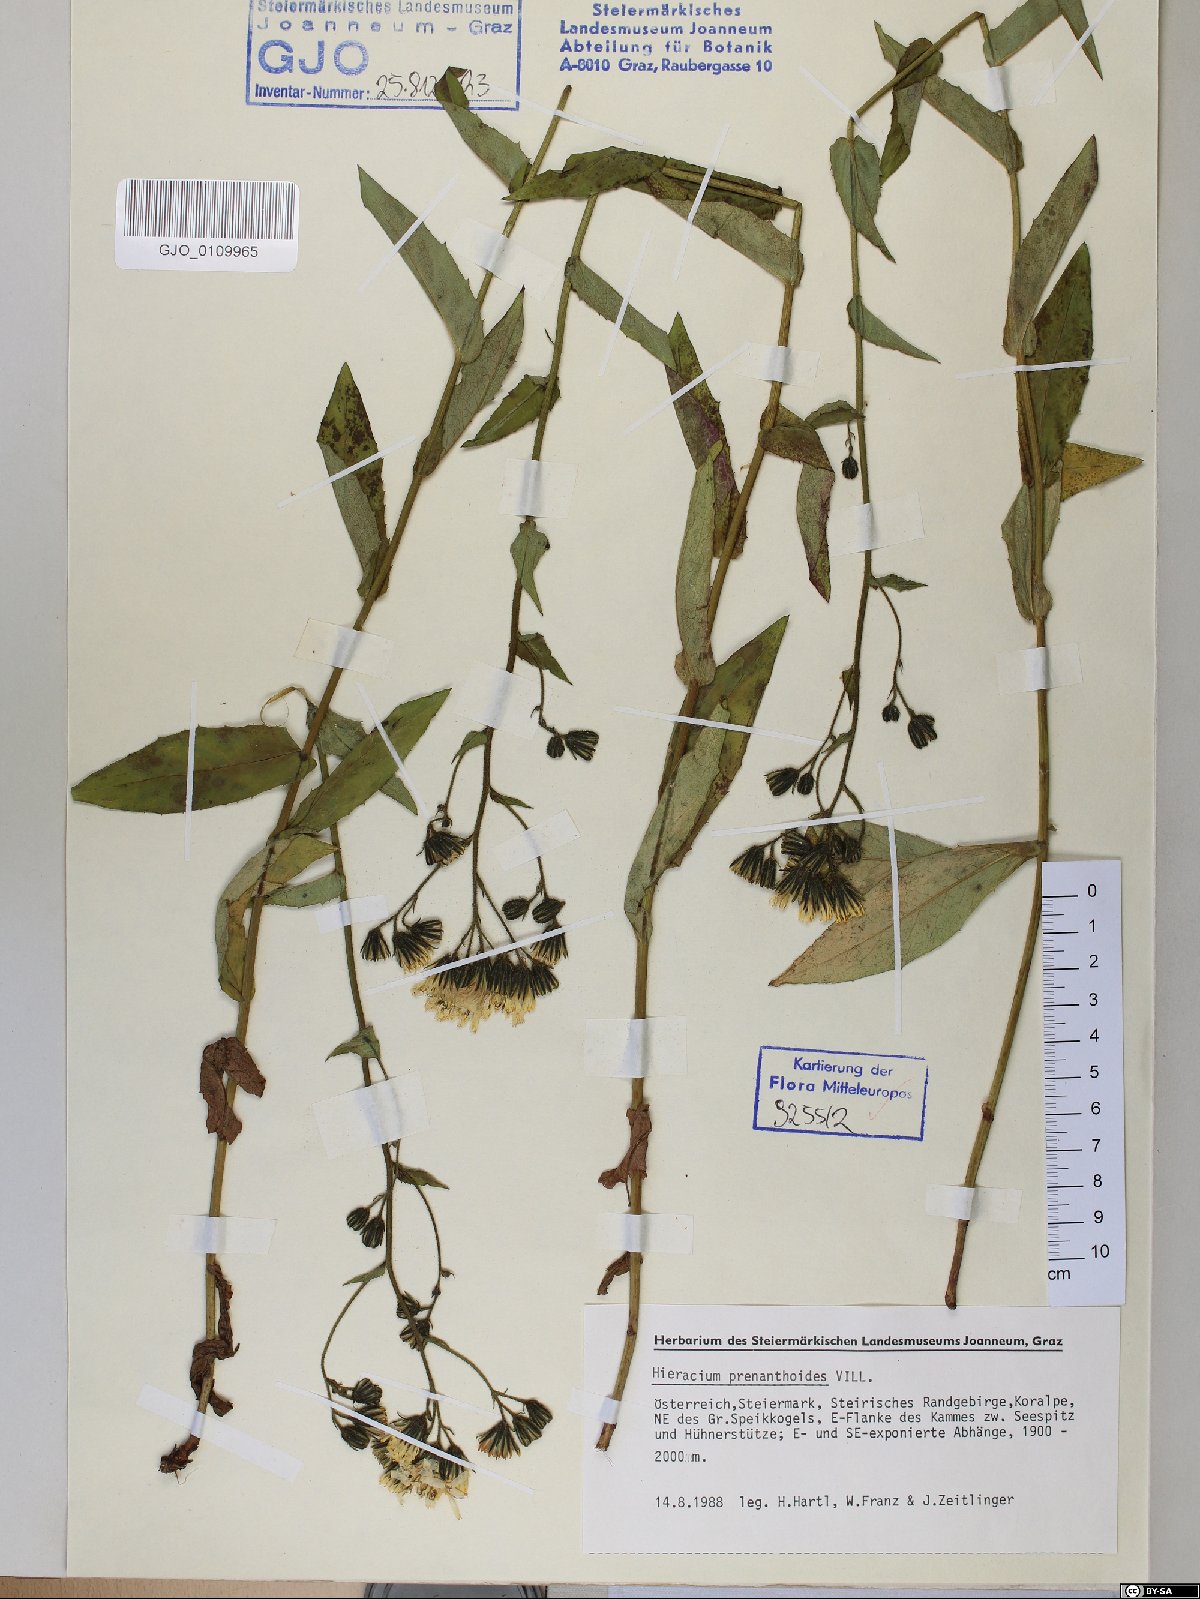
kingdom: Plantae
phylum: Tracheophyta
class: Magnoliopsida
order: Asterales
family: Asteraceae
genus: Hieracium
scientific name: Hieracium prenanthoides
